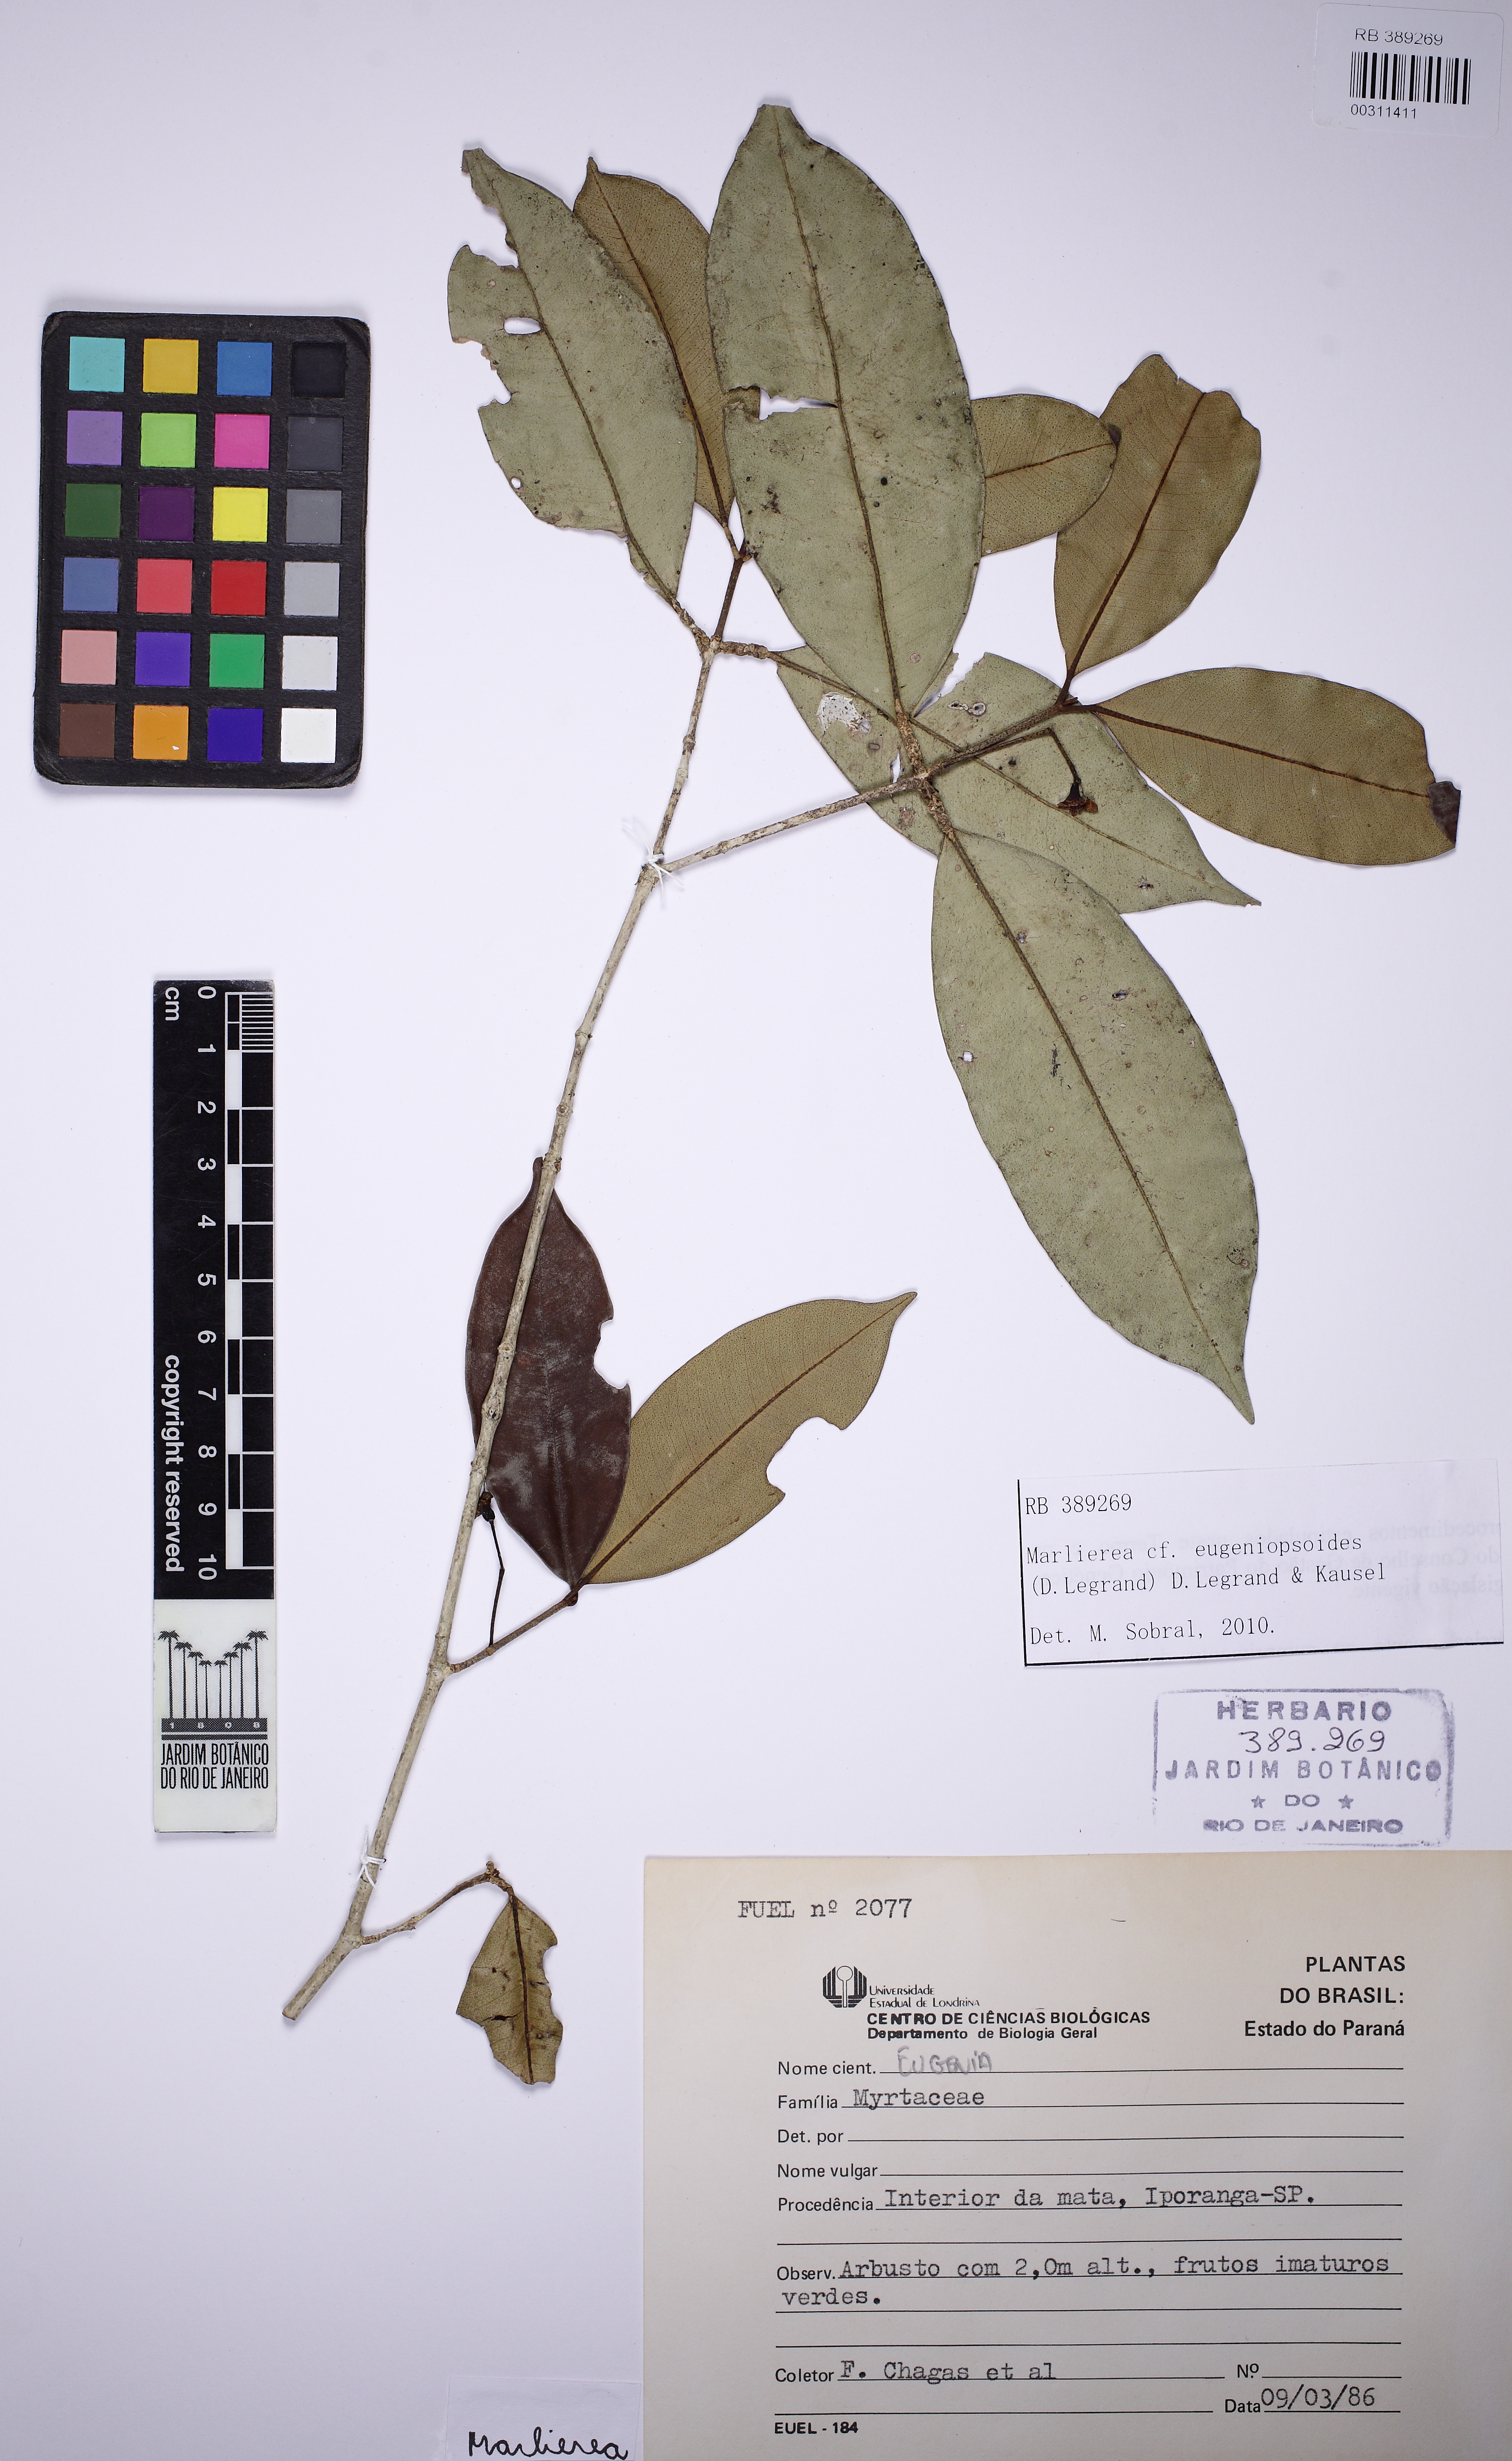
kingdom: Plantae
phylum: Tracheophyta
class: Magnoliopsida
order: Myrtales
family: Myrtaceae
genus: Myrcia
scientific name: Myrcia eugeniopsoides
